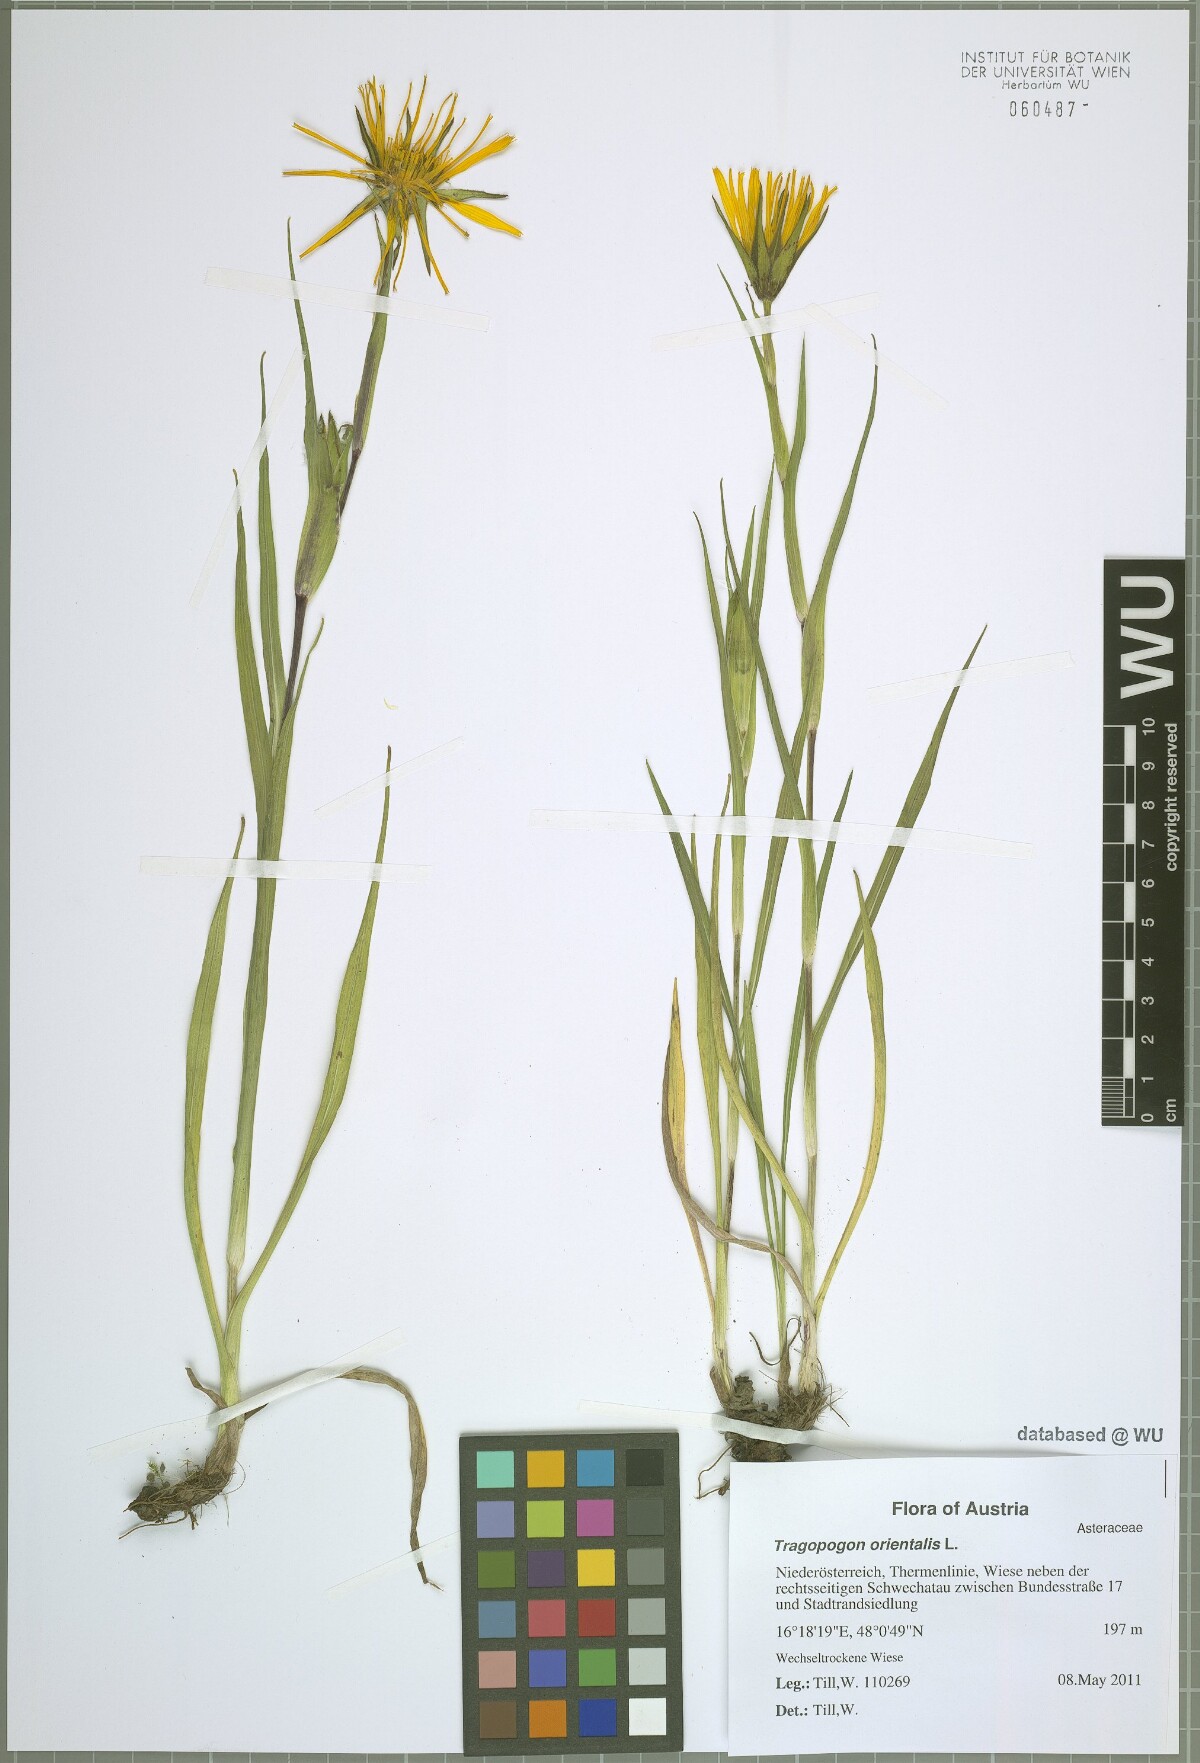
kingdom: Plantae
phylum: Tracheophyta
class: Magnoliopsida
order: Asterales
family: Asteraceae
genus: Tragopogon
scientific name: Tragopogon orientalis
